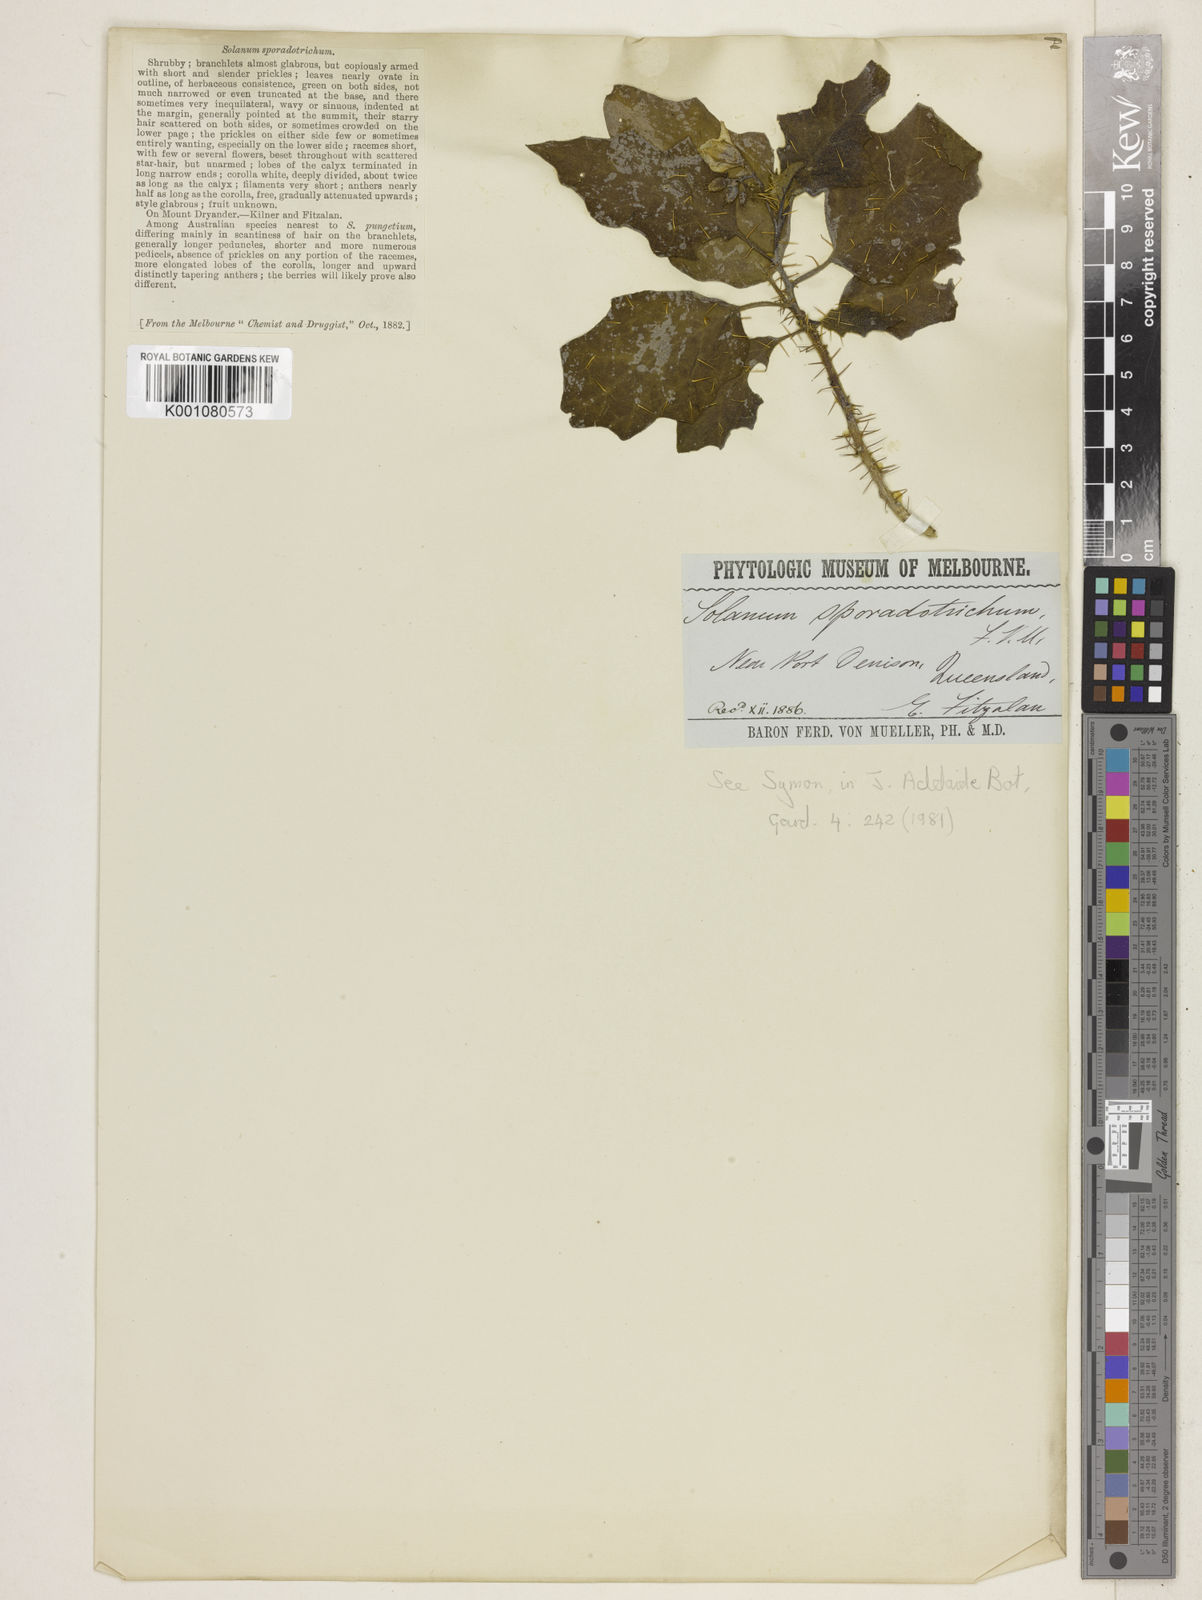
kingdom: Plantae
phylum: Tracheophyta
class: Magnoliopsida
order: Solanales
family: Solanaceae
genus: Solanum
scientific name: Solanum sporadotrichum
